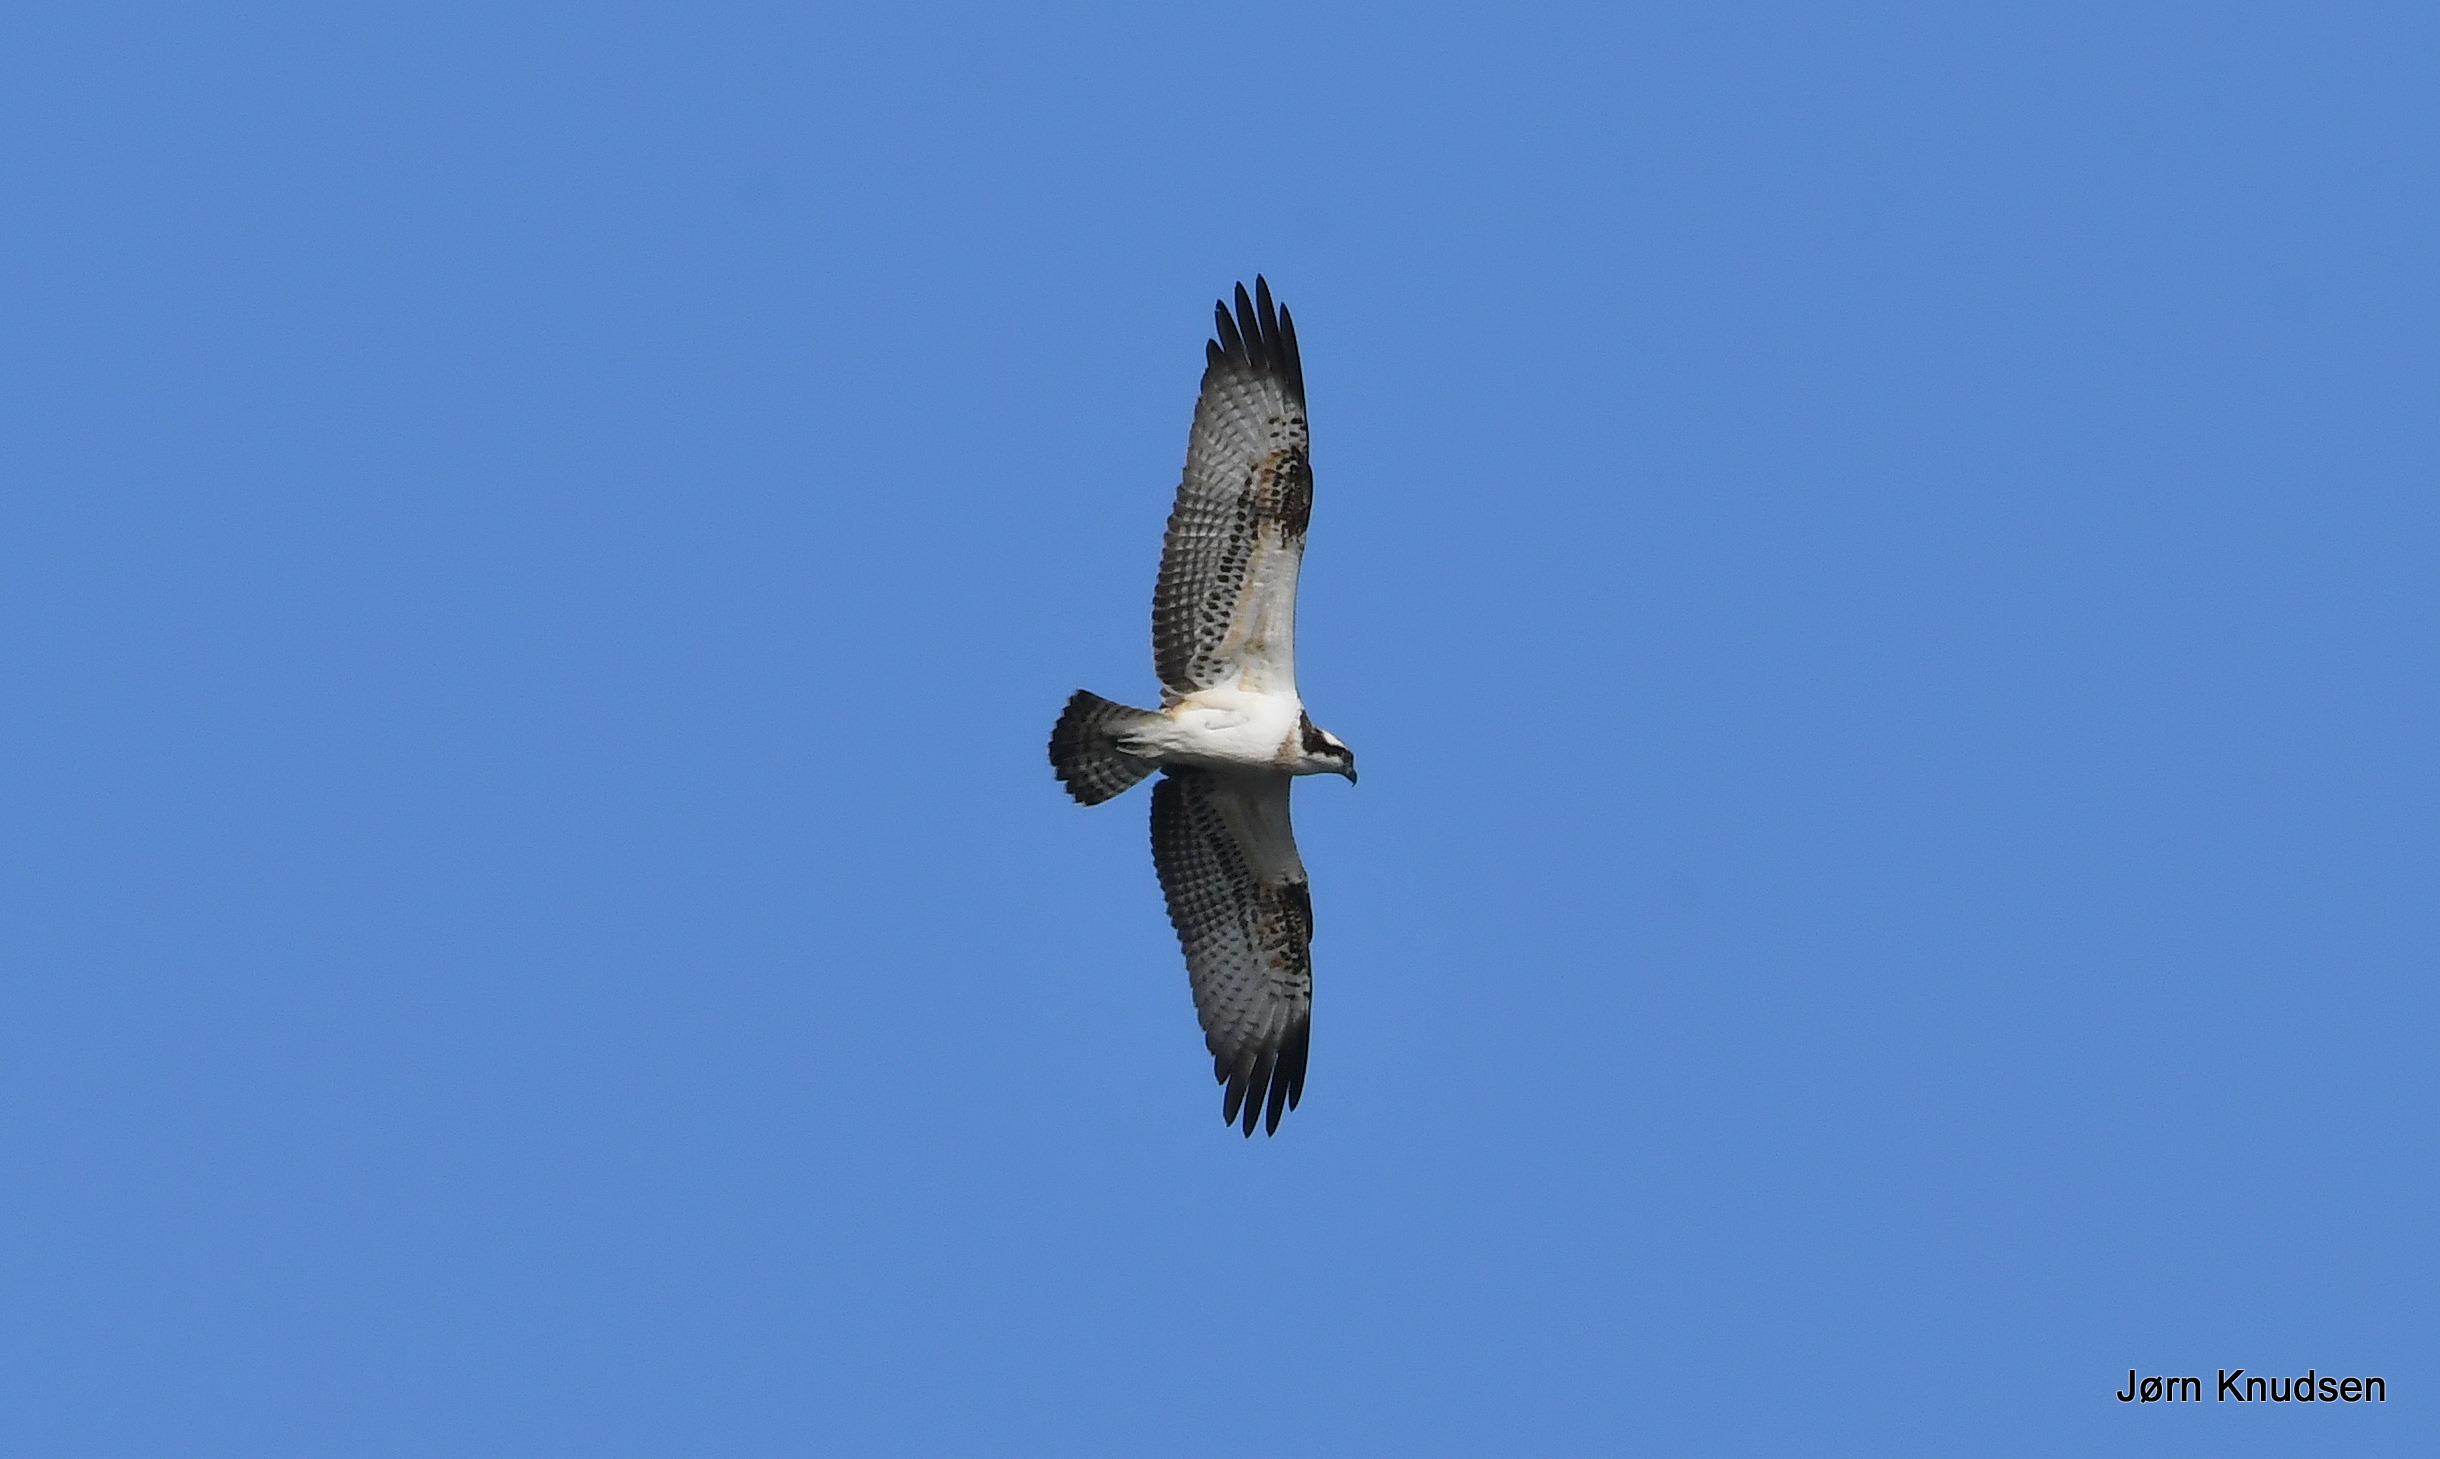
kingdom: Animalia
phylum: Chordata
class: Aves
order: Accipitriformes
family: Pandionidae
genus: Pandion
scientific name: Pandion haliaetus
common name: Fiskeørn
